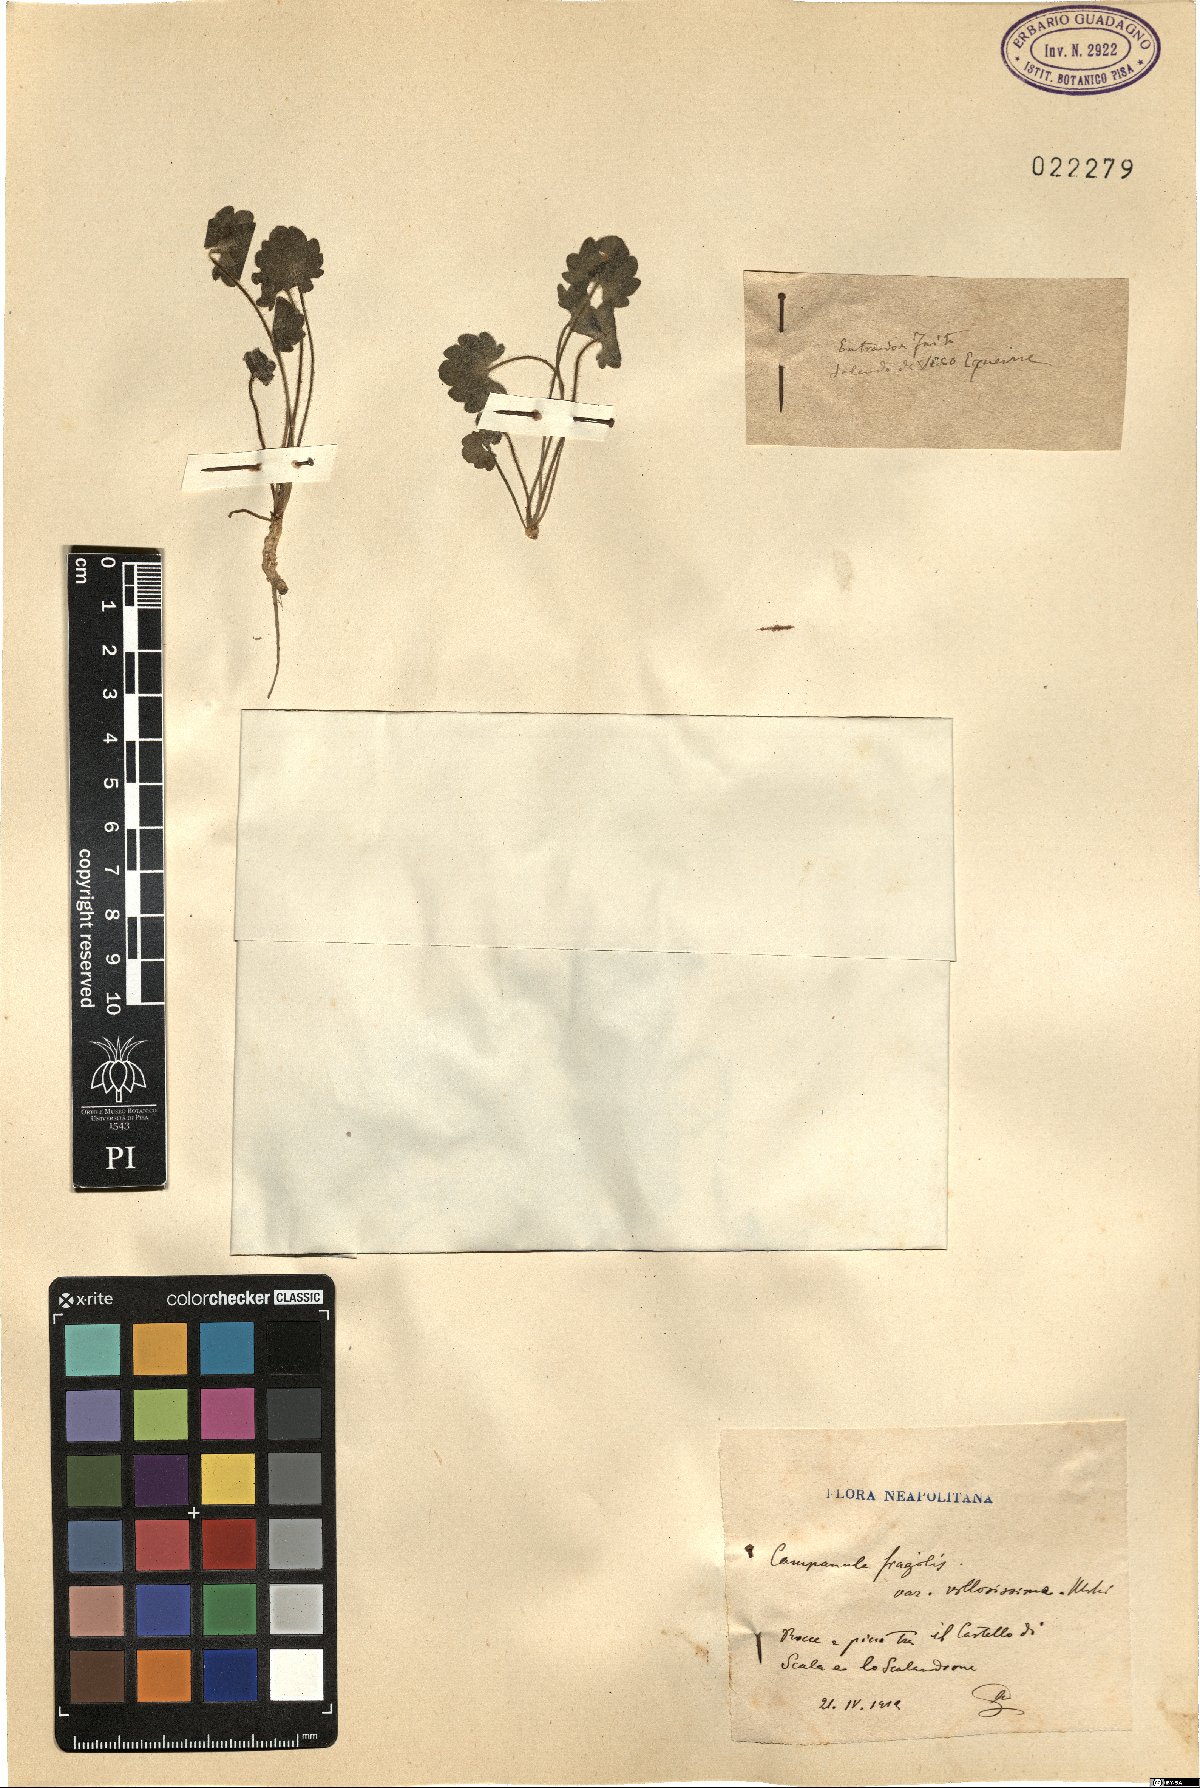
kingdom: Plantae
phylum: Tracheophyta
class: Magnoliopsida
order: Asterales
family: Campanulaceae
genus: Campanula
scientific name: Campanula
